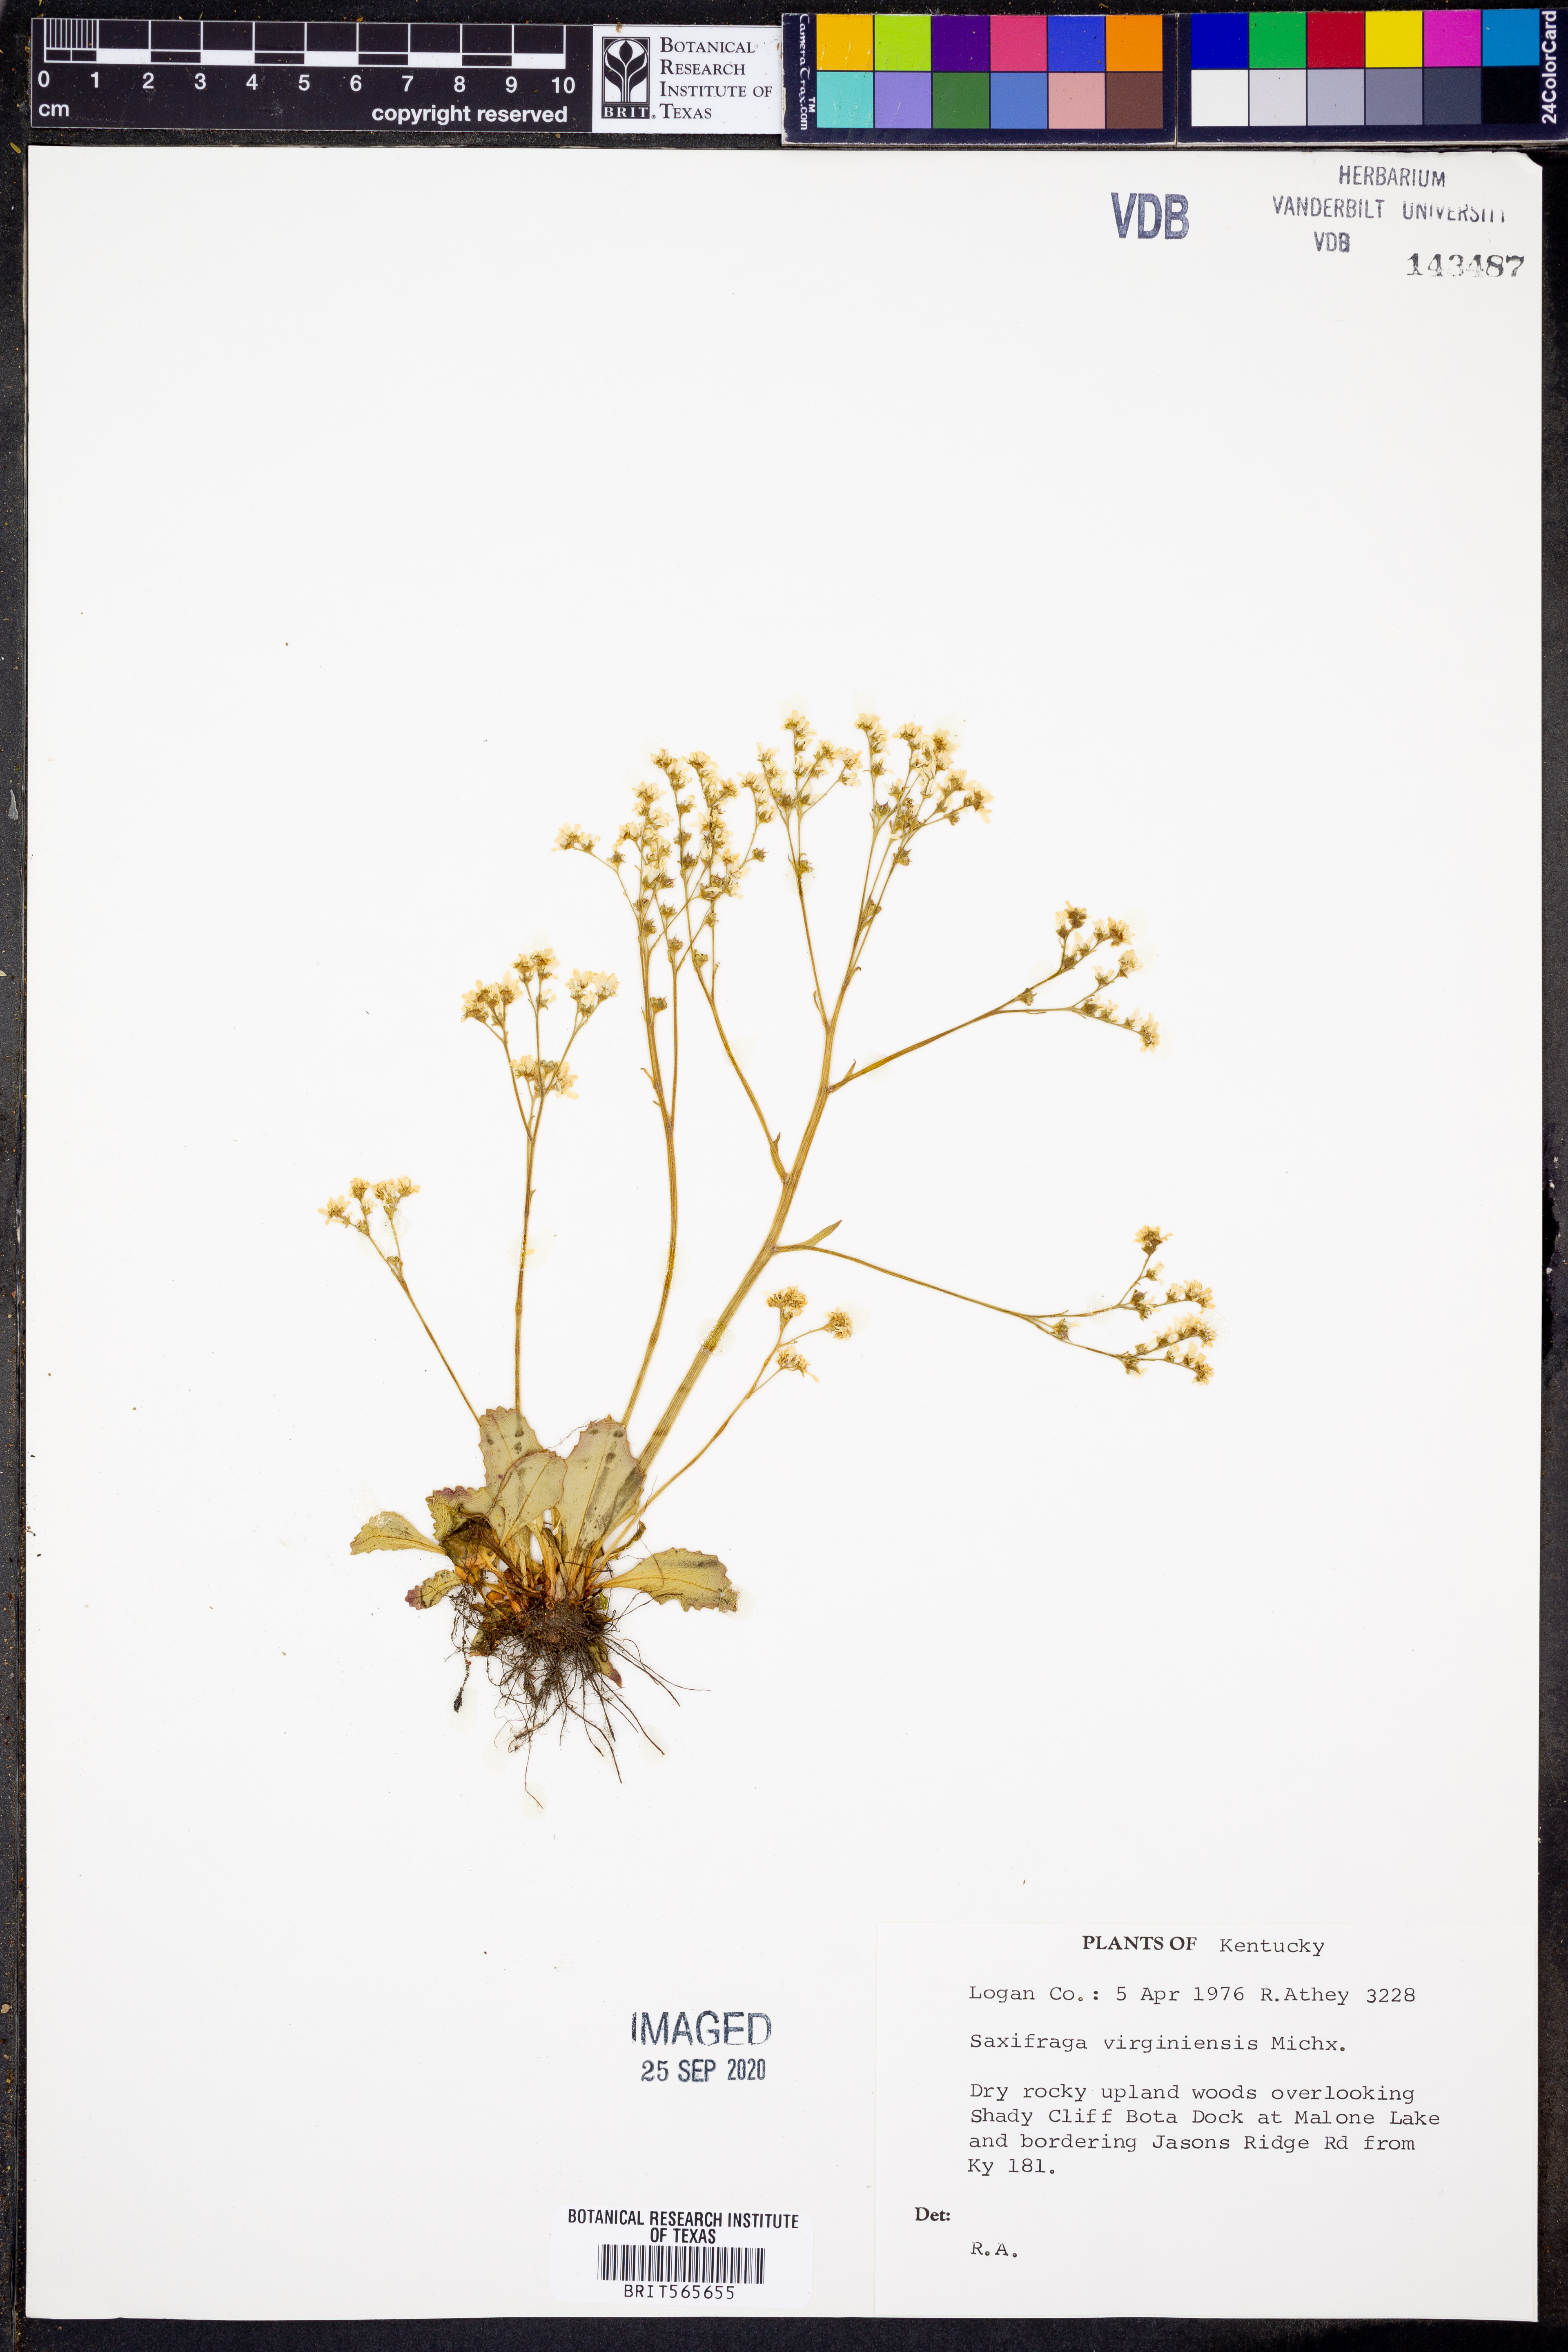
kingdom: Plantae
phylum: Tracheophyta
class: Magnoliopsida
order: Saxifragales
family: Saxifragaceae
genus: Micranthes
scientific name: Micranthes virginiensis
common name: Early saxifrage
